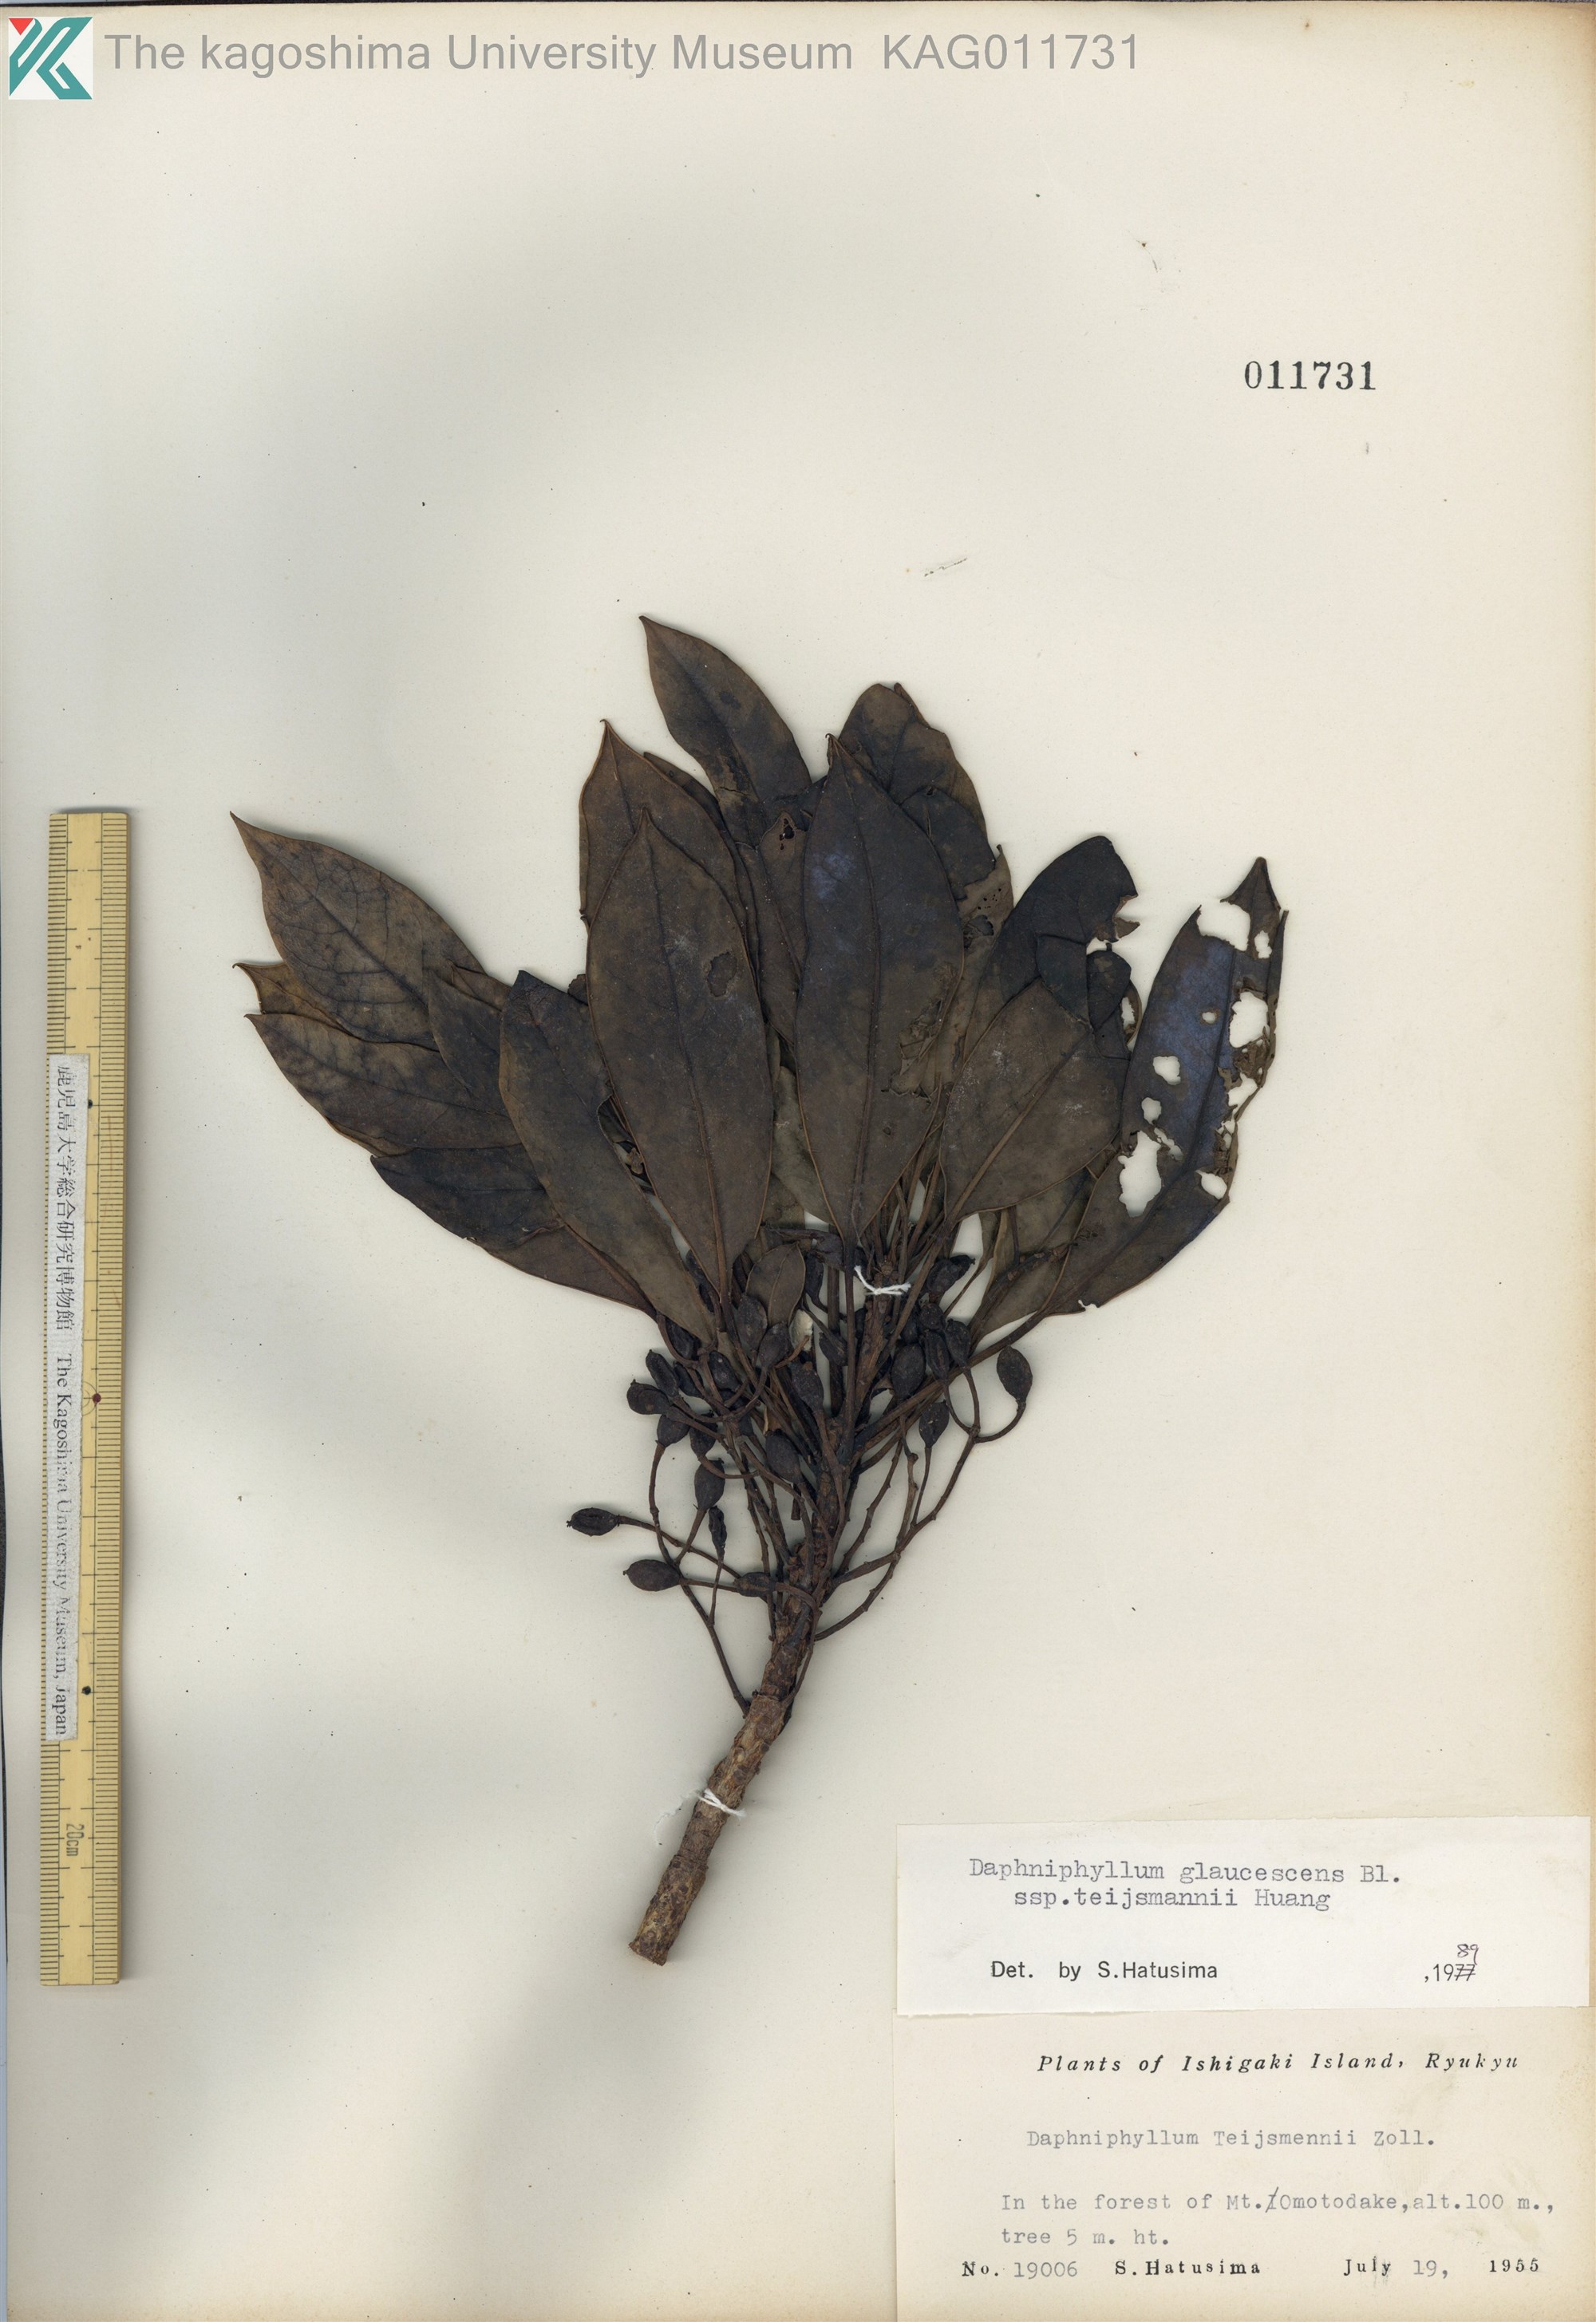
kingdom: Plantae
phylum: Tracheophyta
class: Magnoliopsida
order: Saxifragales
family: Daphniphyllaceae
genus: Daphniphyllum
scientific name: Daphniphyllum teijsmannii
